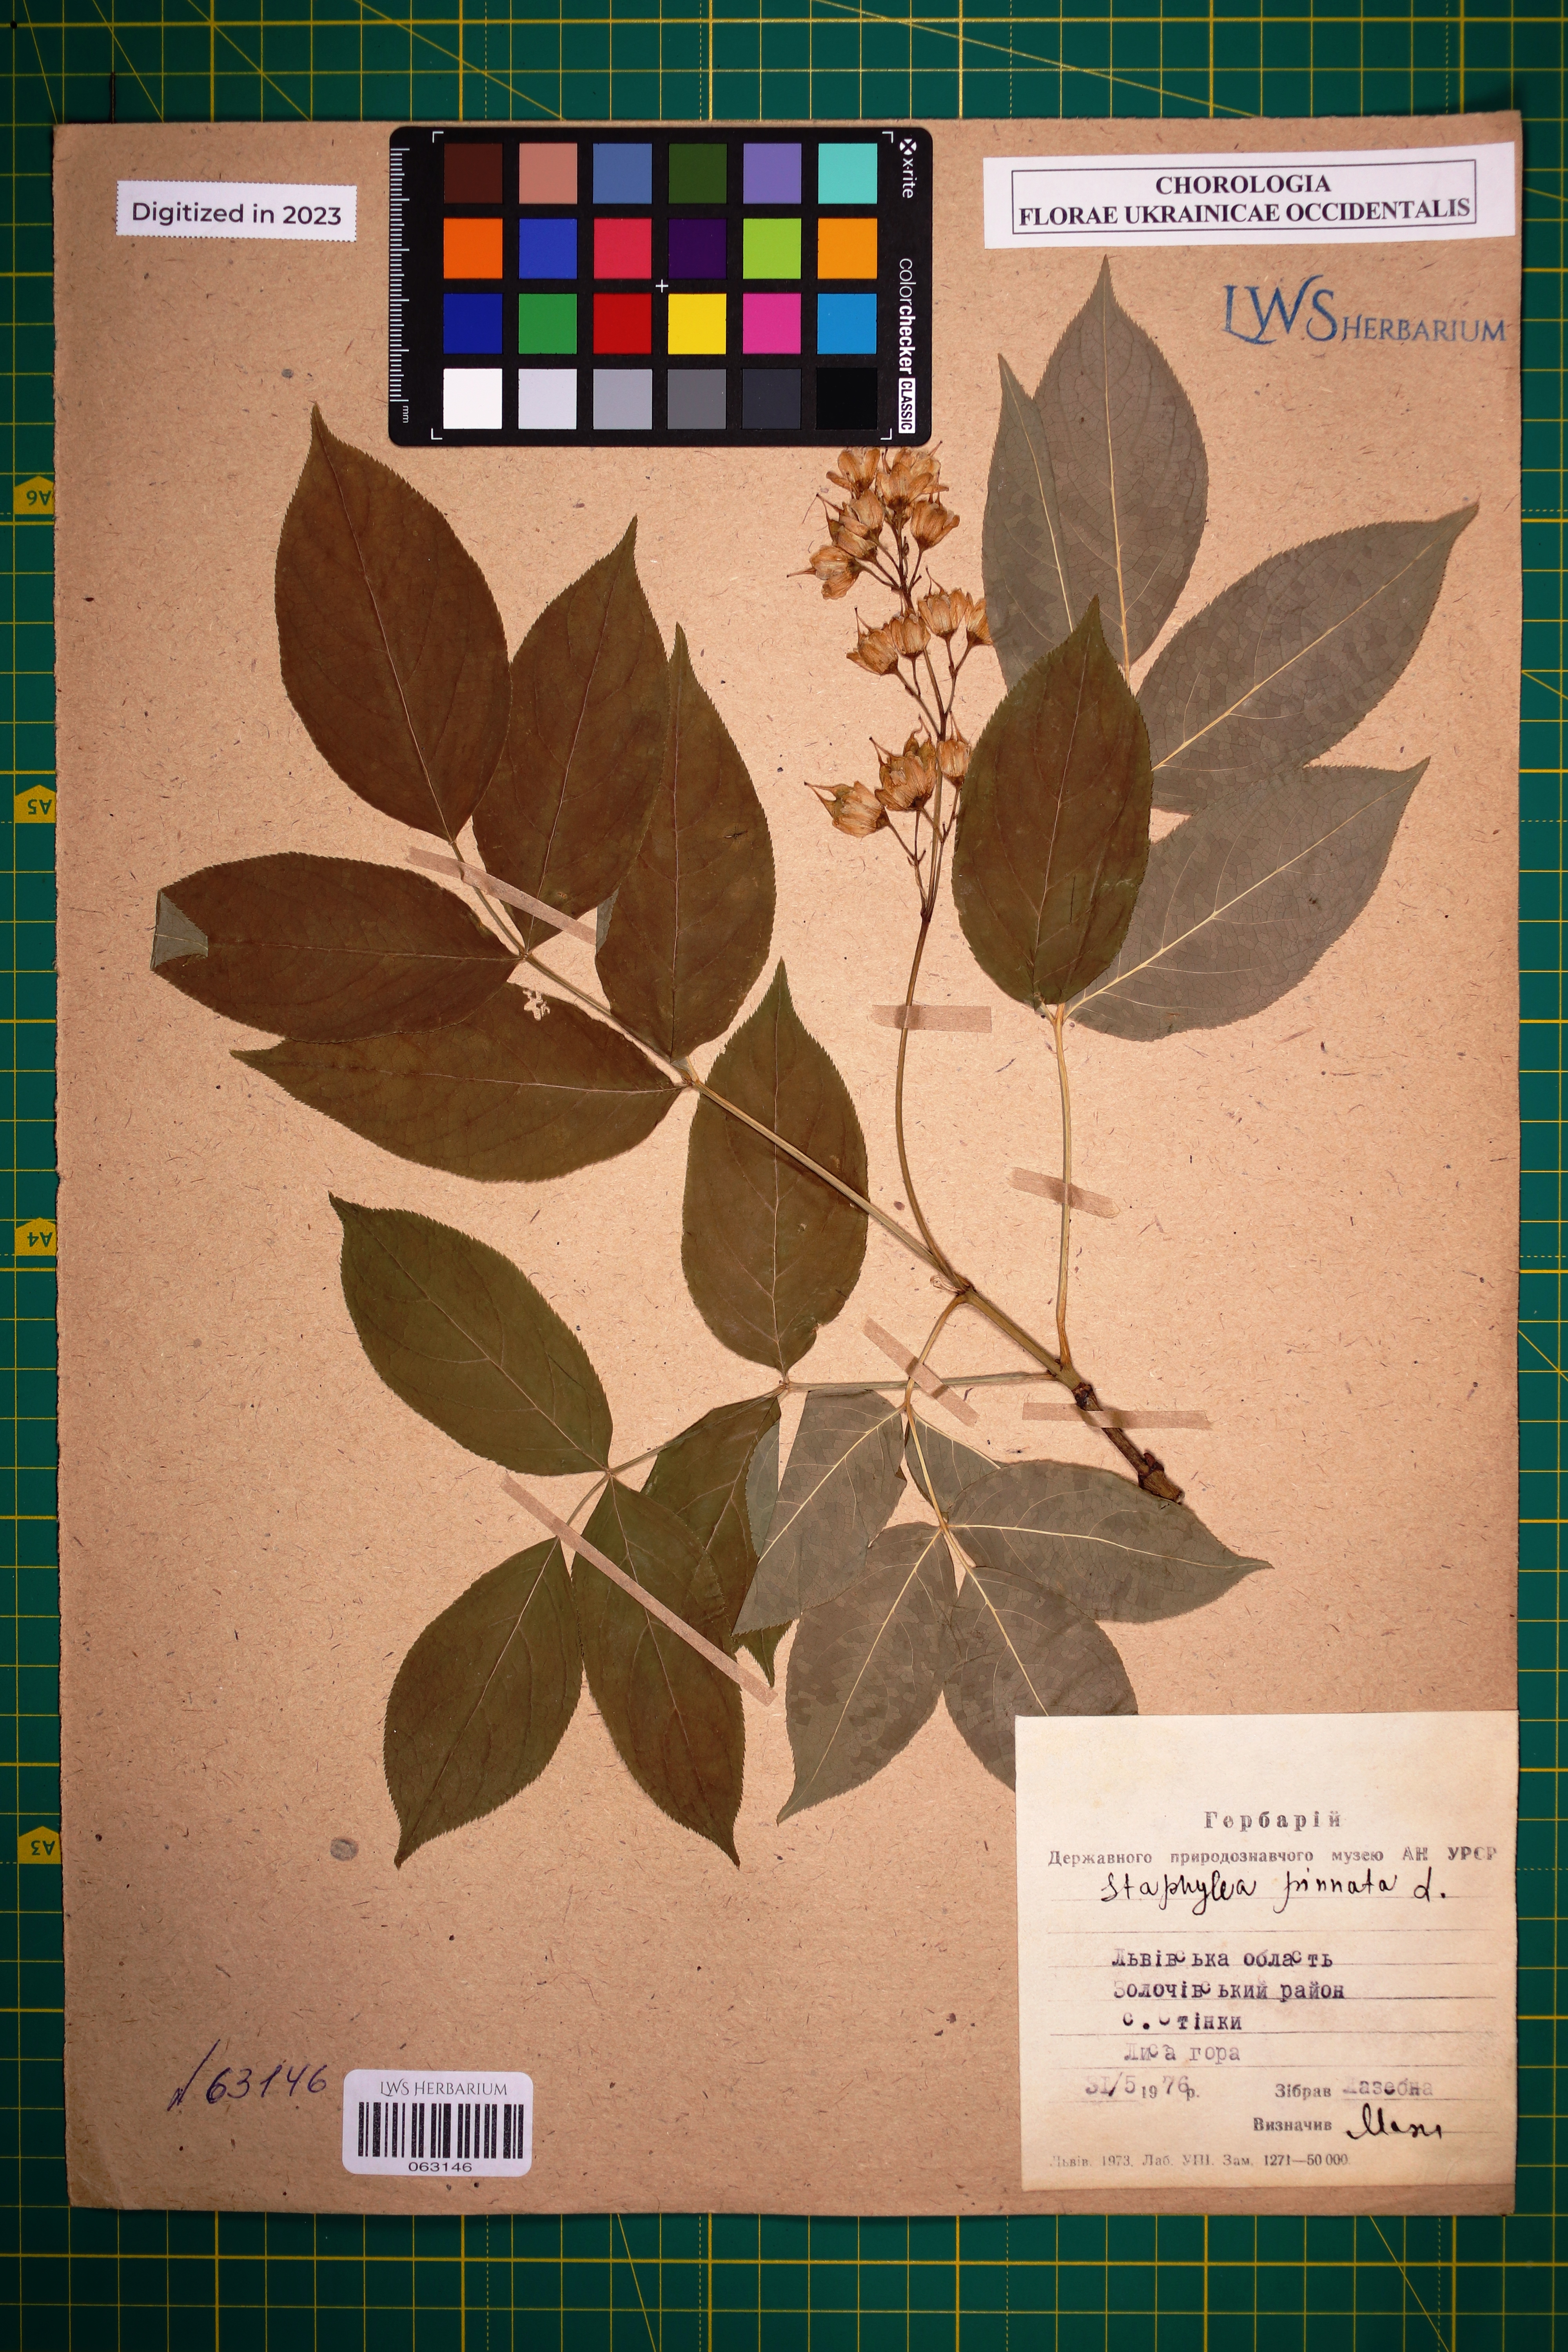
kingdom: Plantae
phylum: Tracheophyta
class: Magnoliopsida
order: Crossosomatales
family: Staphyleaceae
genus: Staphylea
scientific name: Staphylea pinnata
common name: Bladdernut
